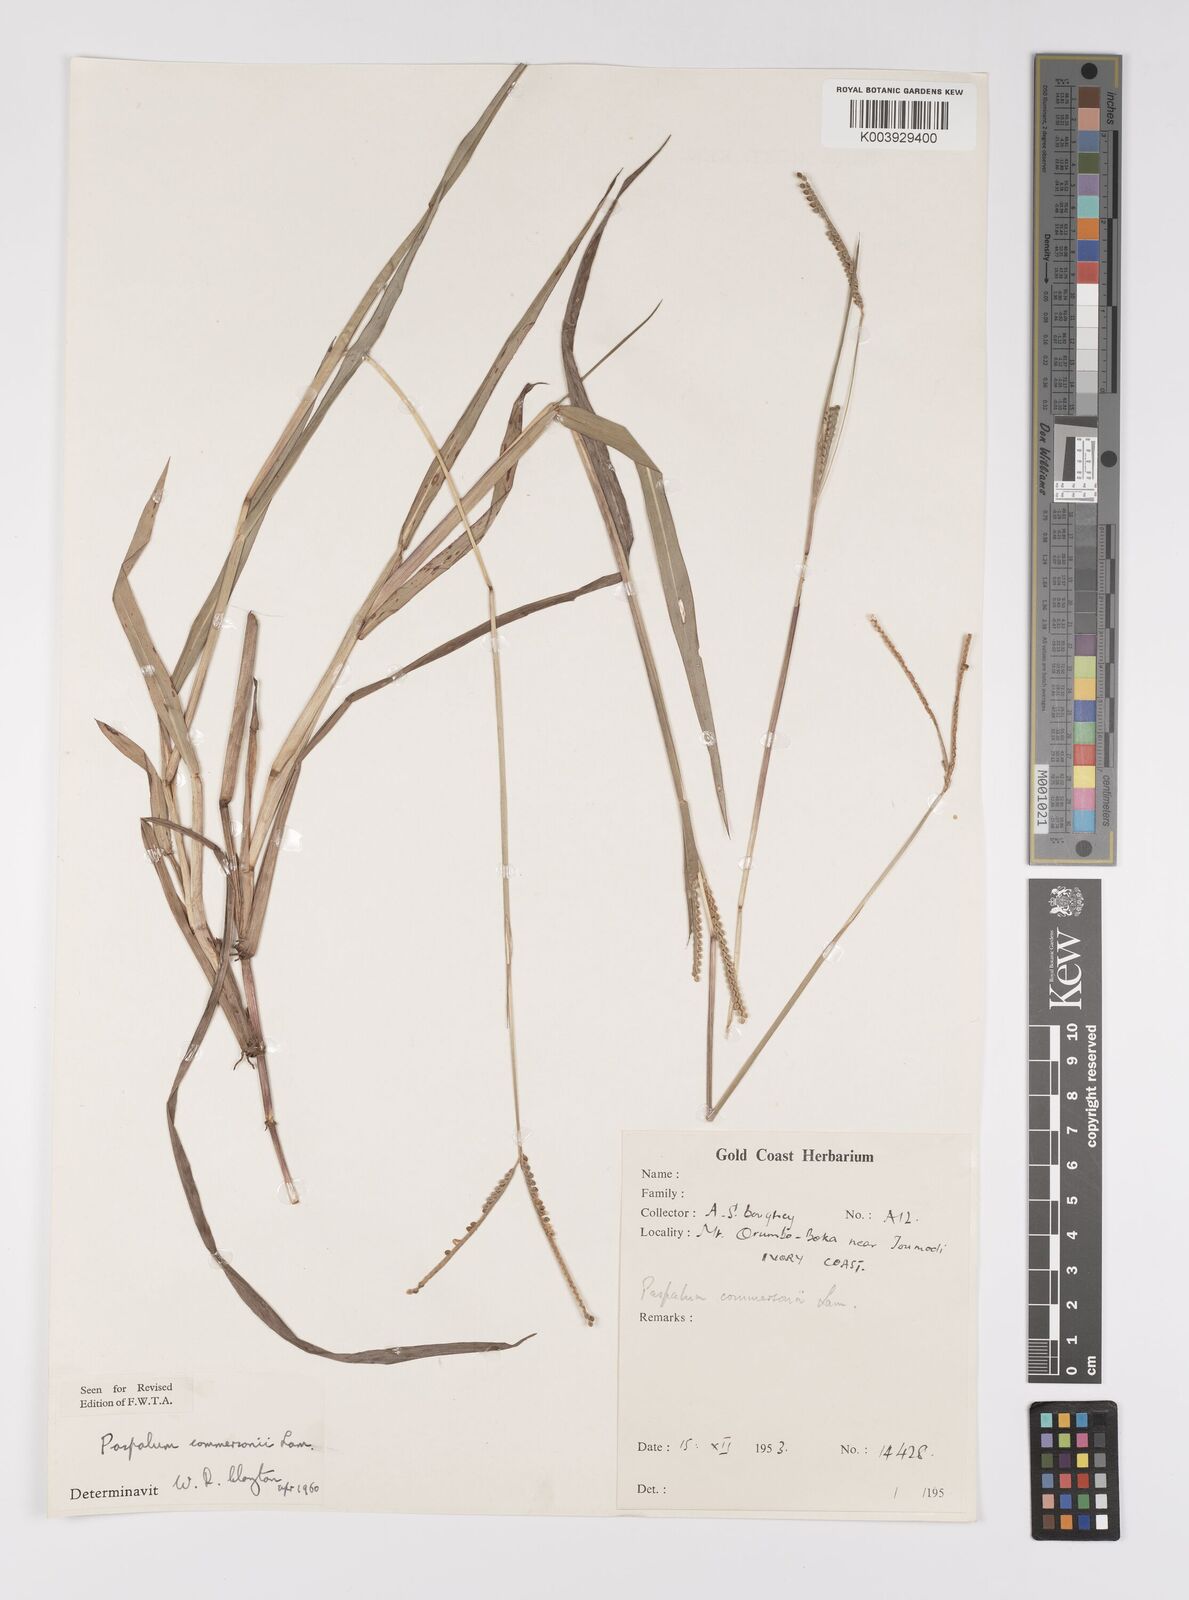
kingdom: Plantae
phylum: Tracheophyta
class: Liliopsida
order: Poales
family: Poaceae
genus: Paspalum
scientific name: Paspalum scrobiculatum
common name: Kodo millet
